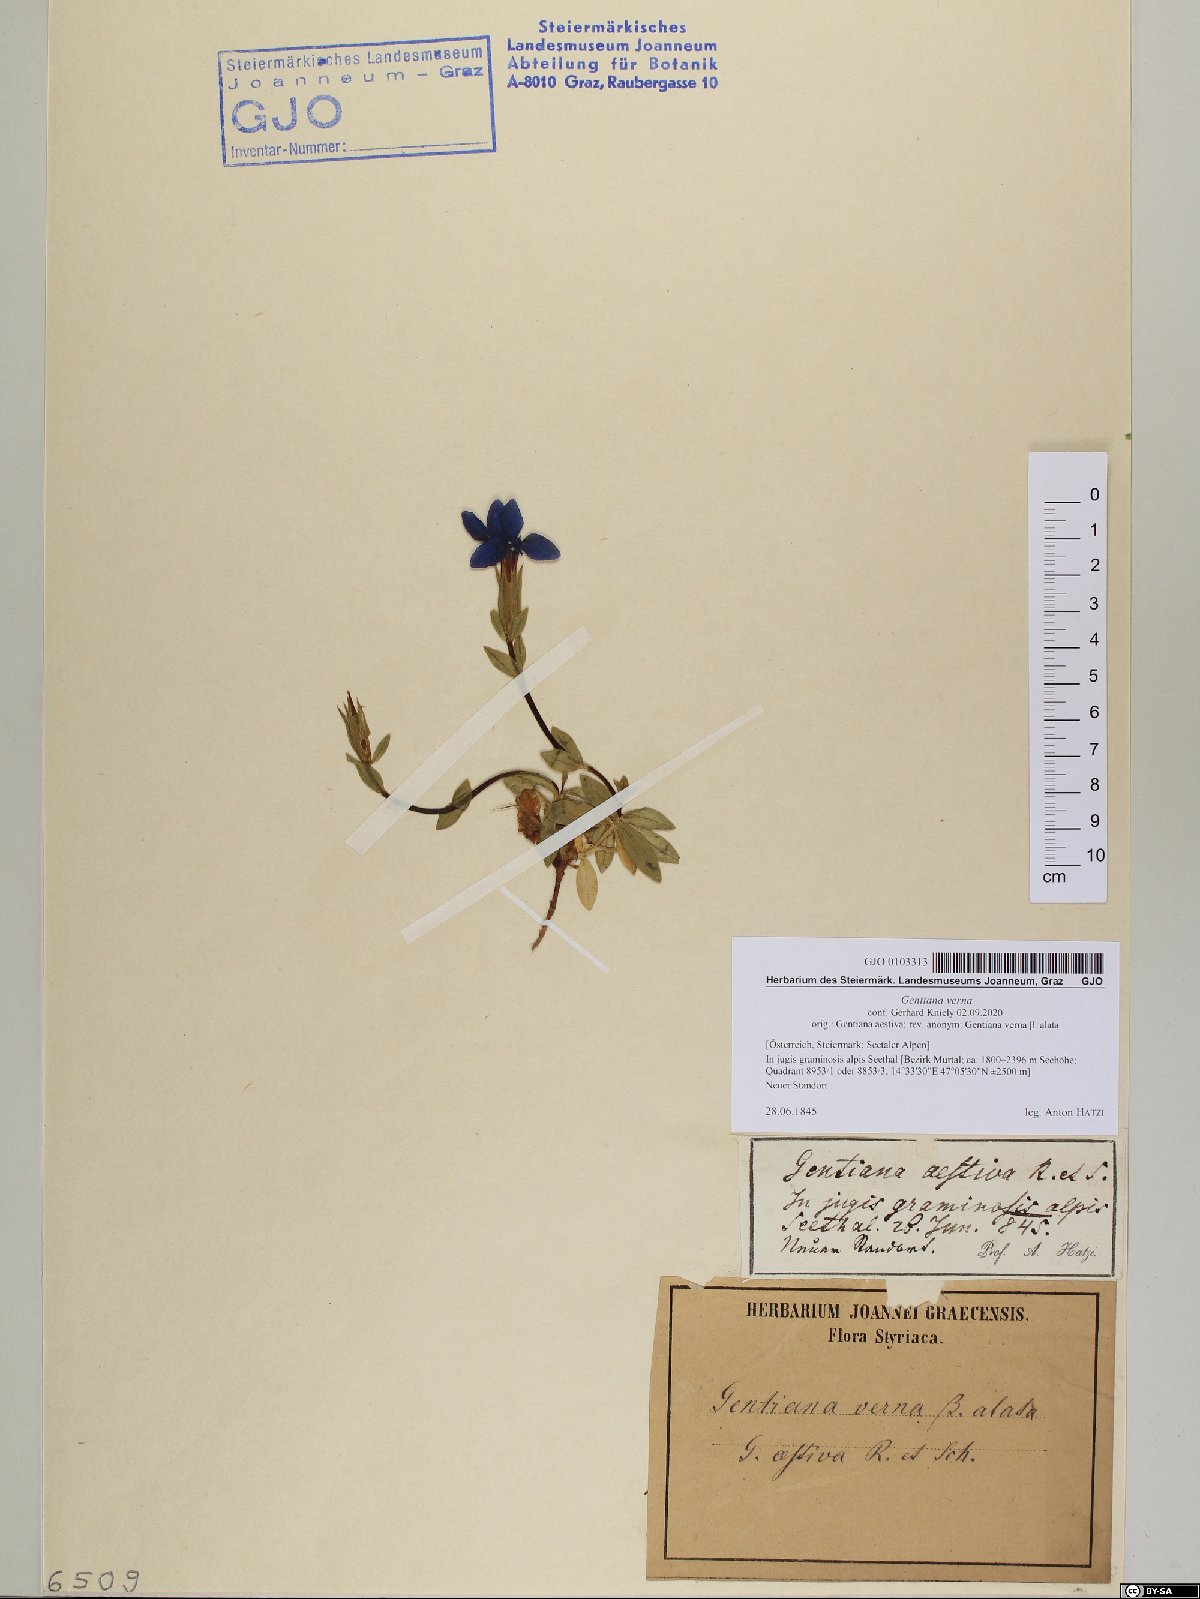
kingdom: Plantae
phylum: Tracheophyta
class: Magnoliopsida
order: Gentianales
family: Gentianaceae
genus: Gentiana
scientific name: Gentiana verna
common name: Spring gentian
